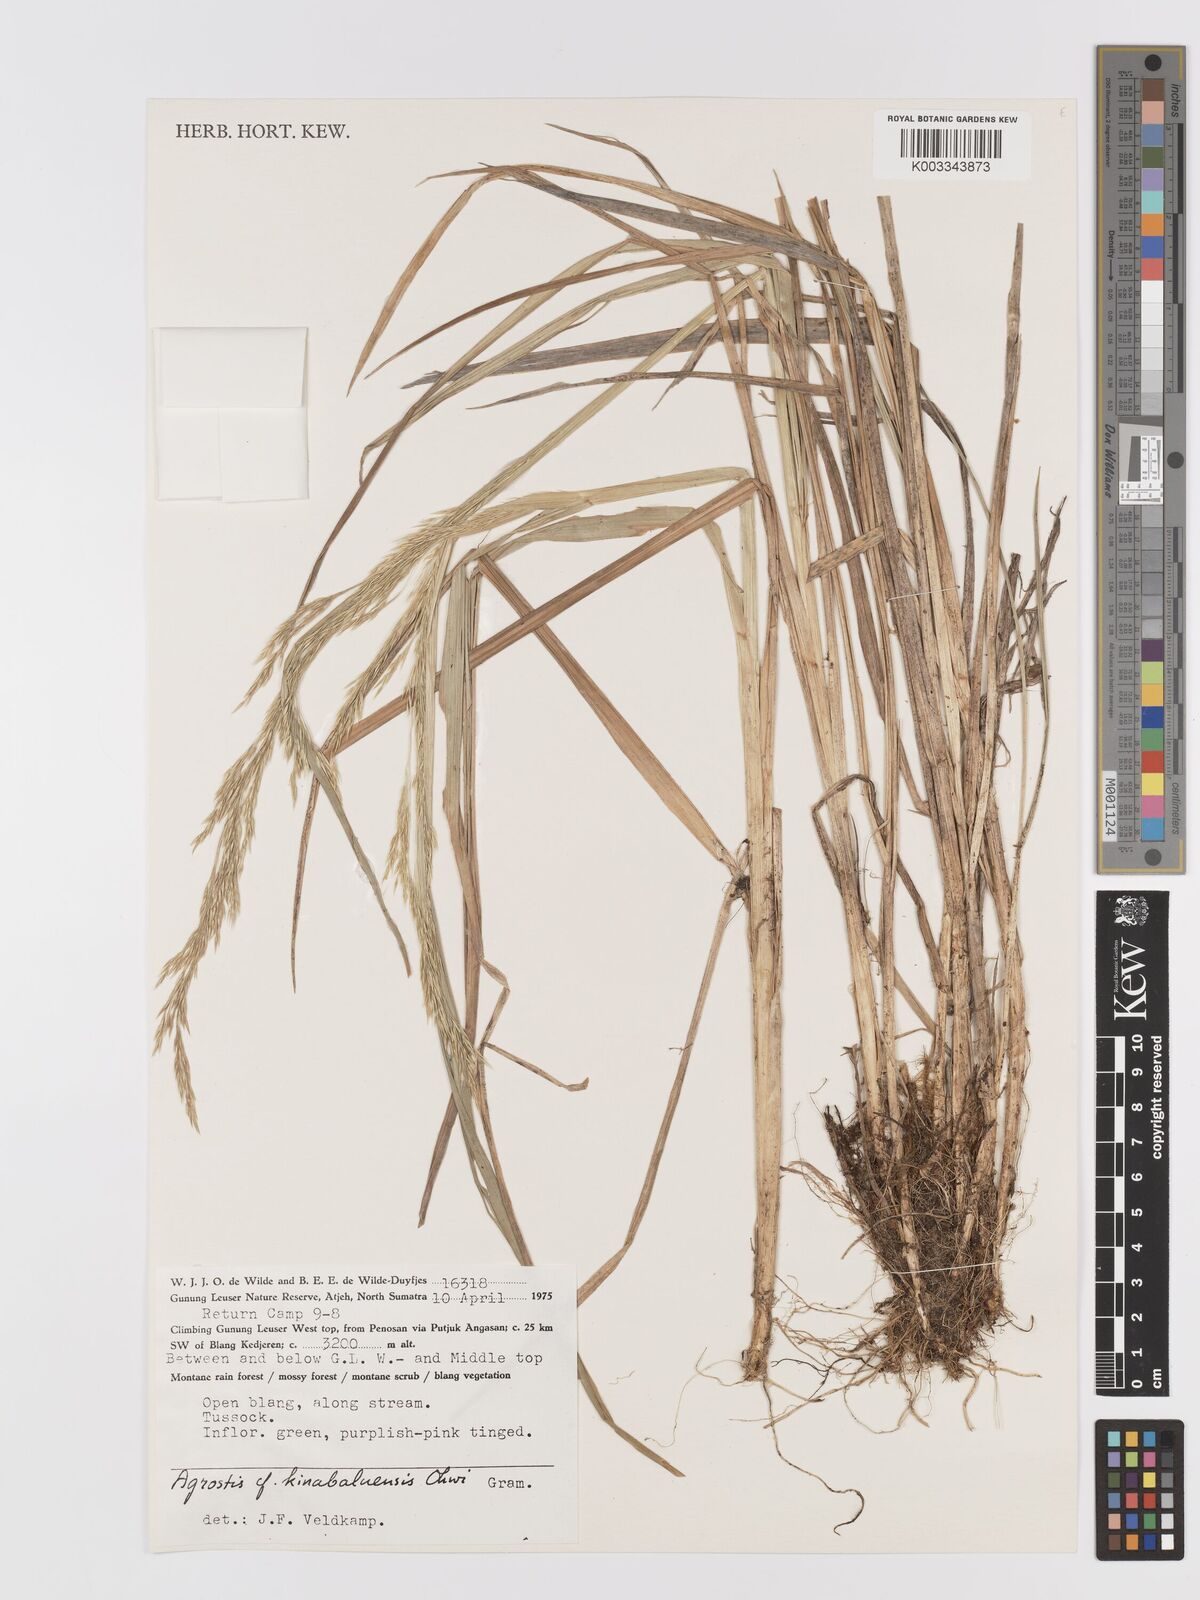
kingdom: Plantae
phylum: Tracheophyta
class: Liliopsida
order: Poales
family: Poaceae
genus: Agrostis
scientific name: Agrostis
